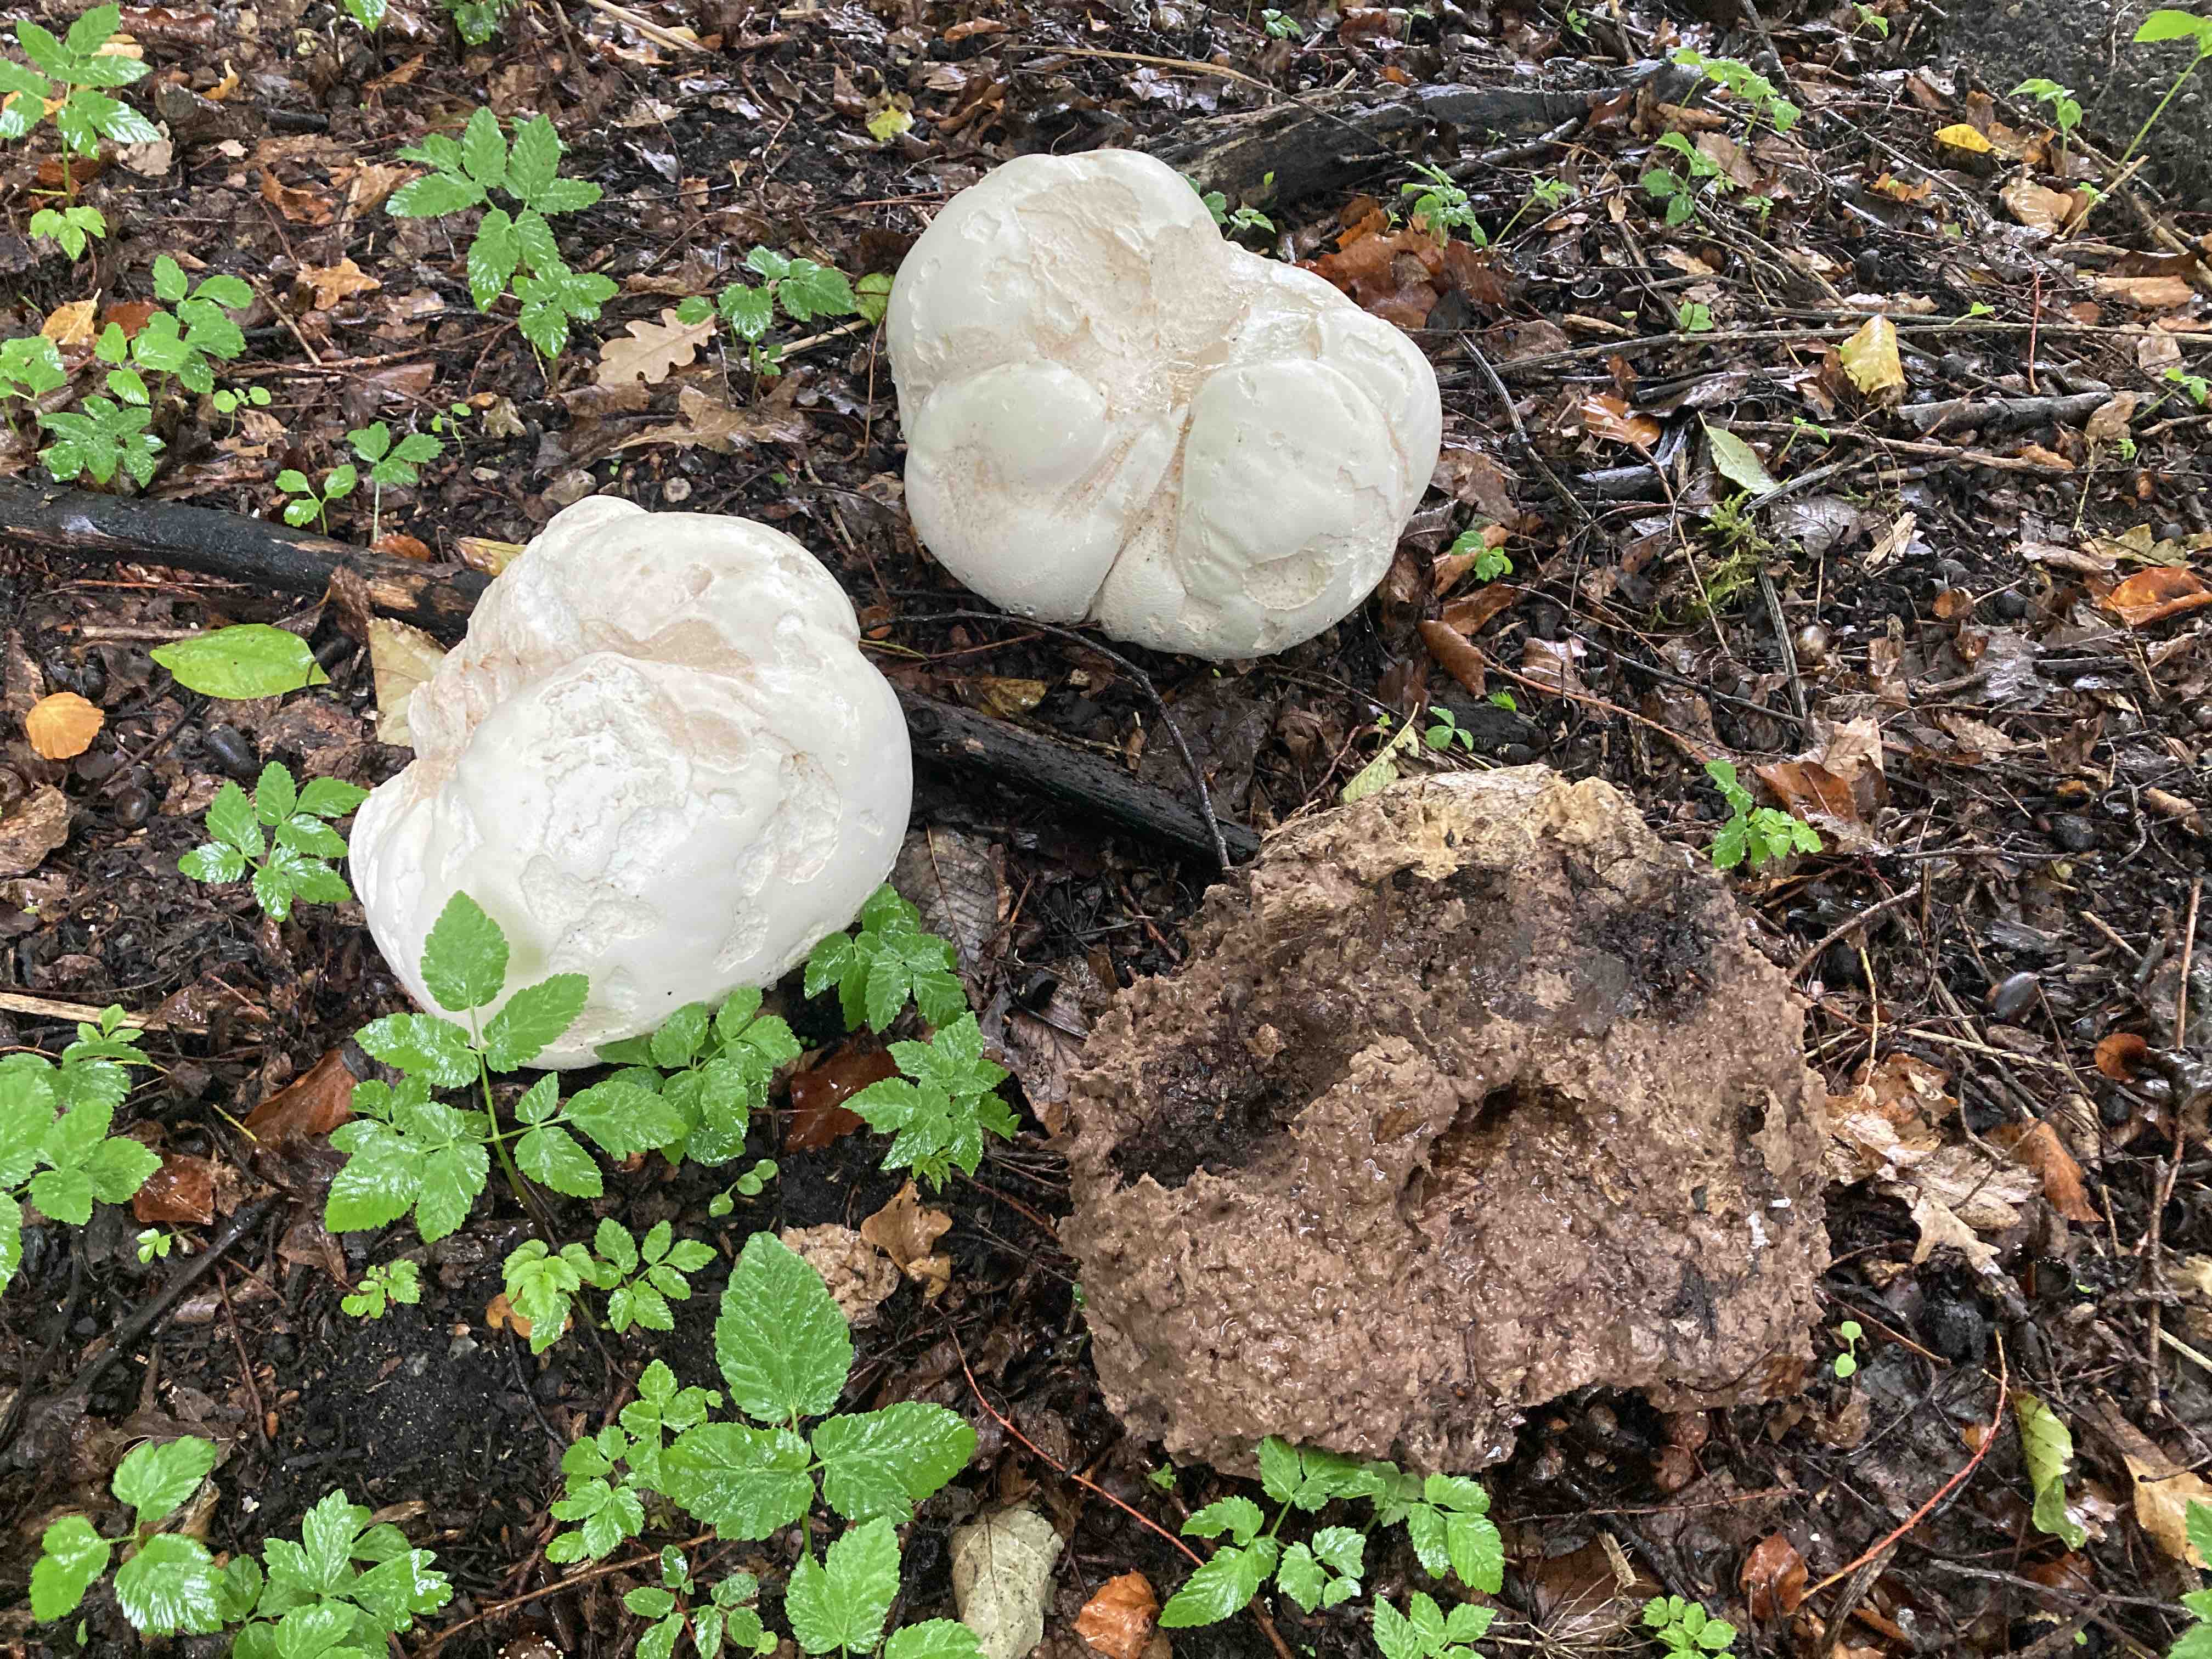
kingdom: Fungi
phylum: Basidiomycota
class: Agaricomycetes
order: Agaricales
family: Lycoperdaceae
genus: Calvatia
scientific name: Calvatia gigantea
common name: kæmpestøvbold
